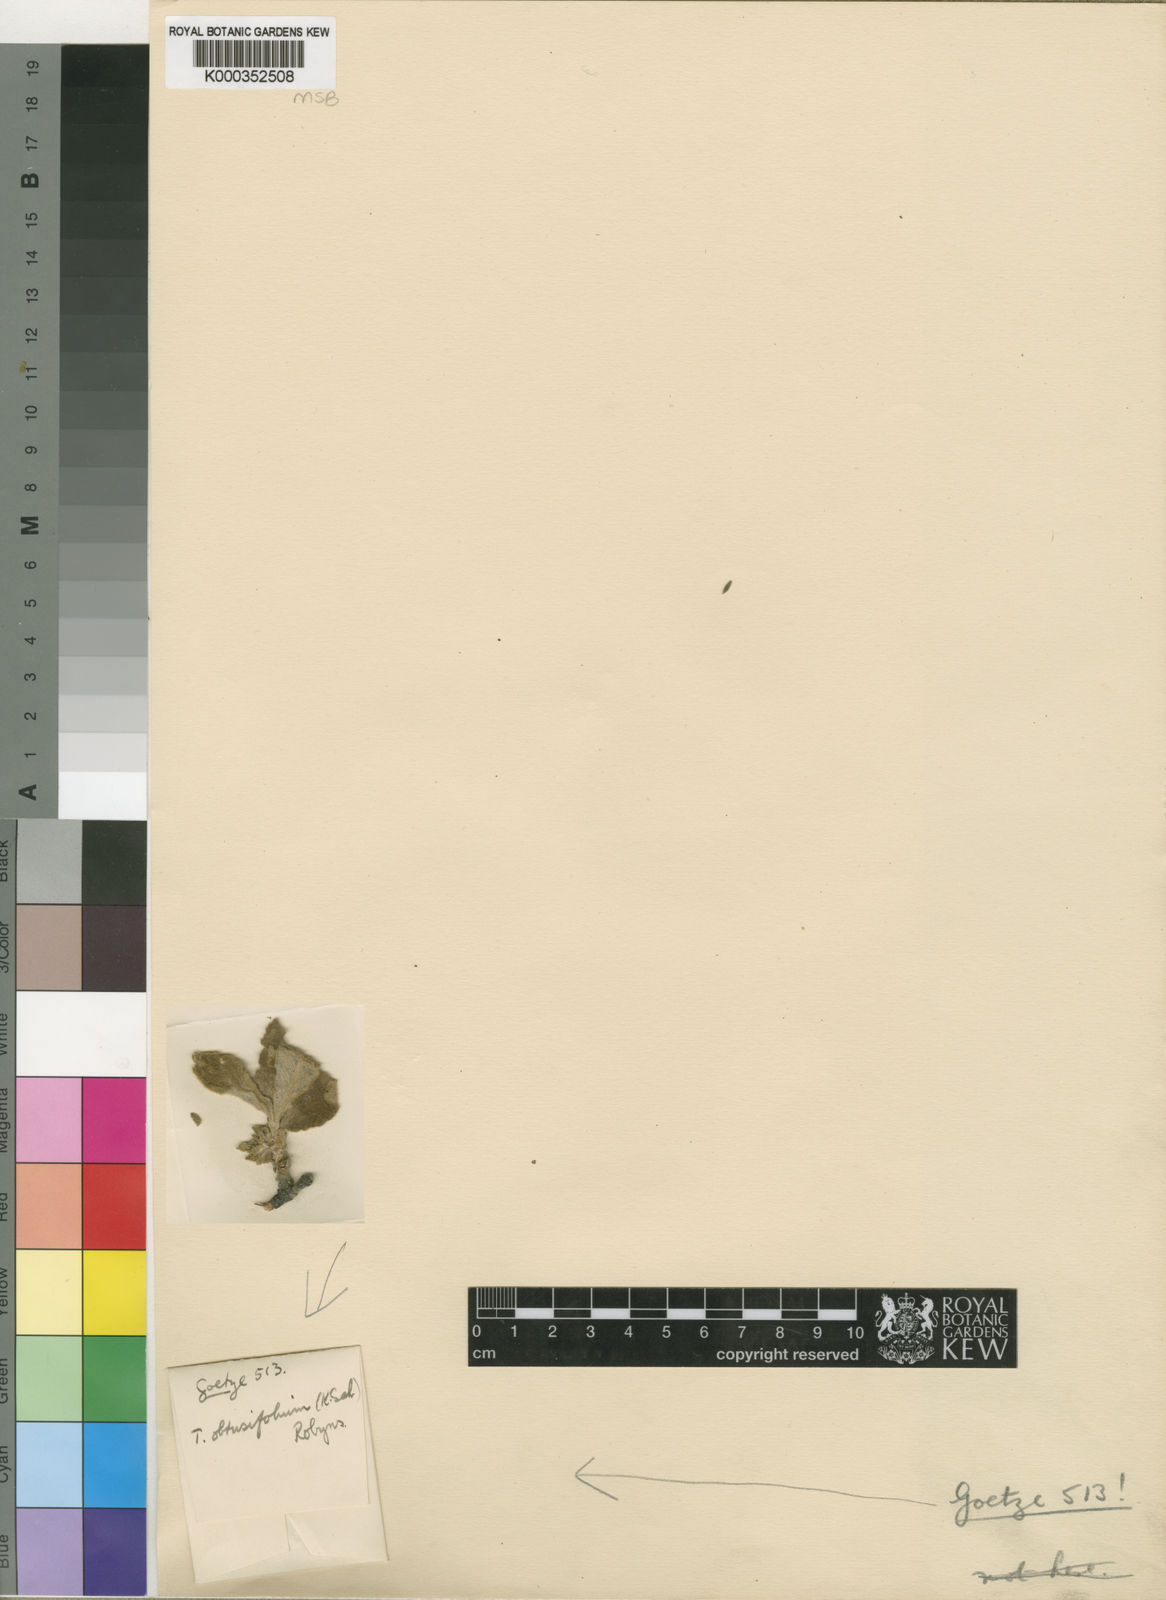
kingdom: Plantae
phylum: Tracheophyta
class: Magnoliopsida
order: Gentianales
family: Rubiaceae
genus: Vangueria
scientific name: Vangueria
